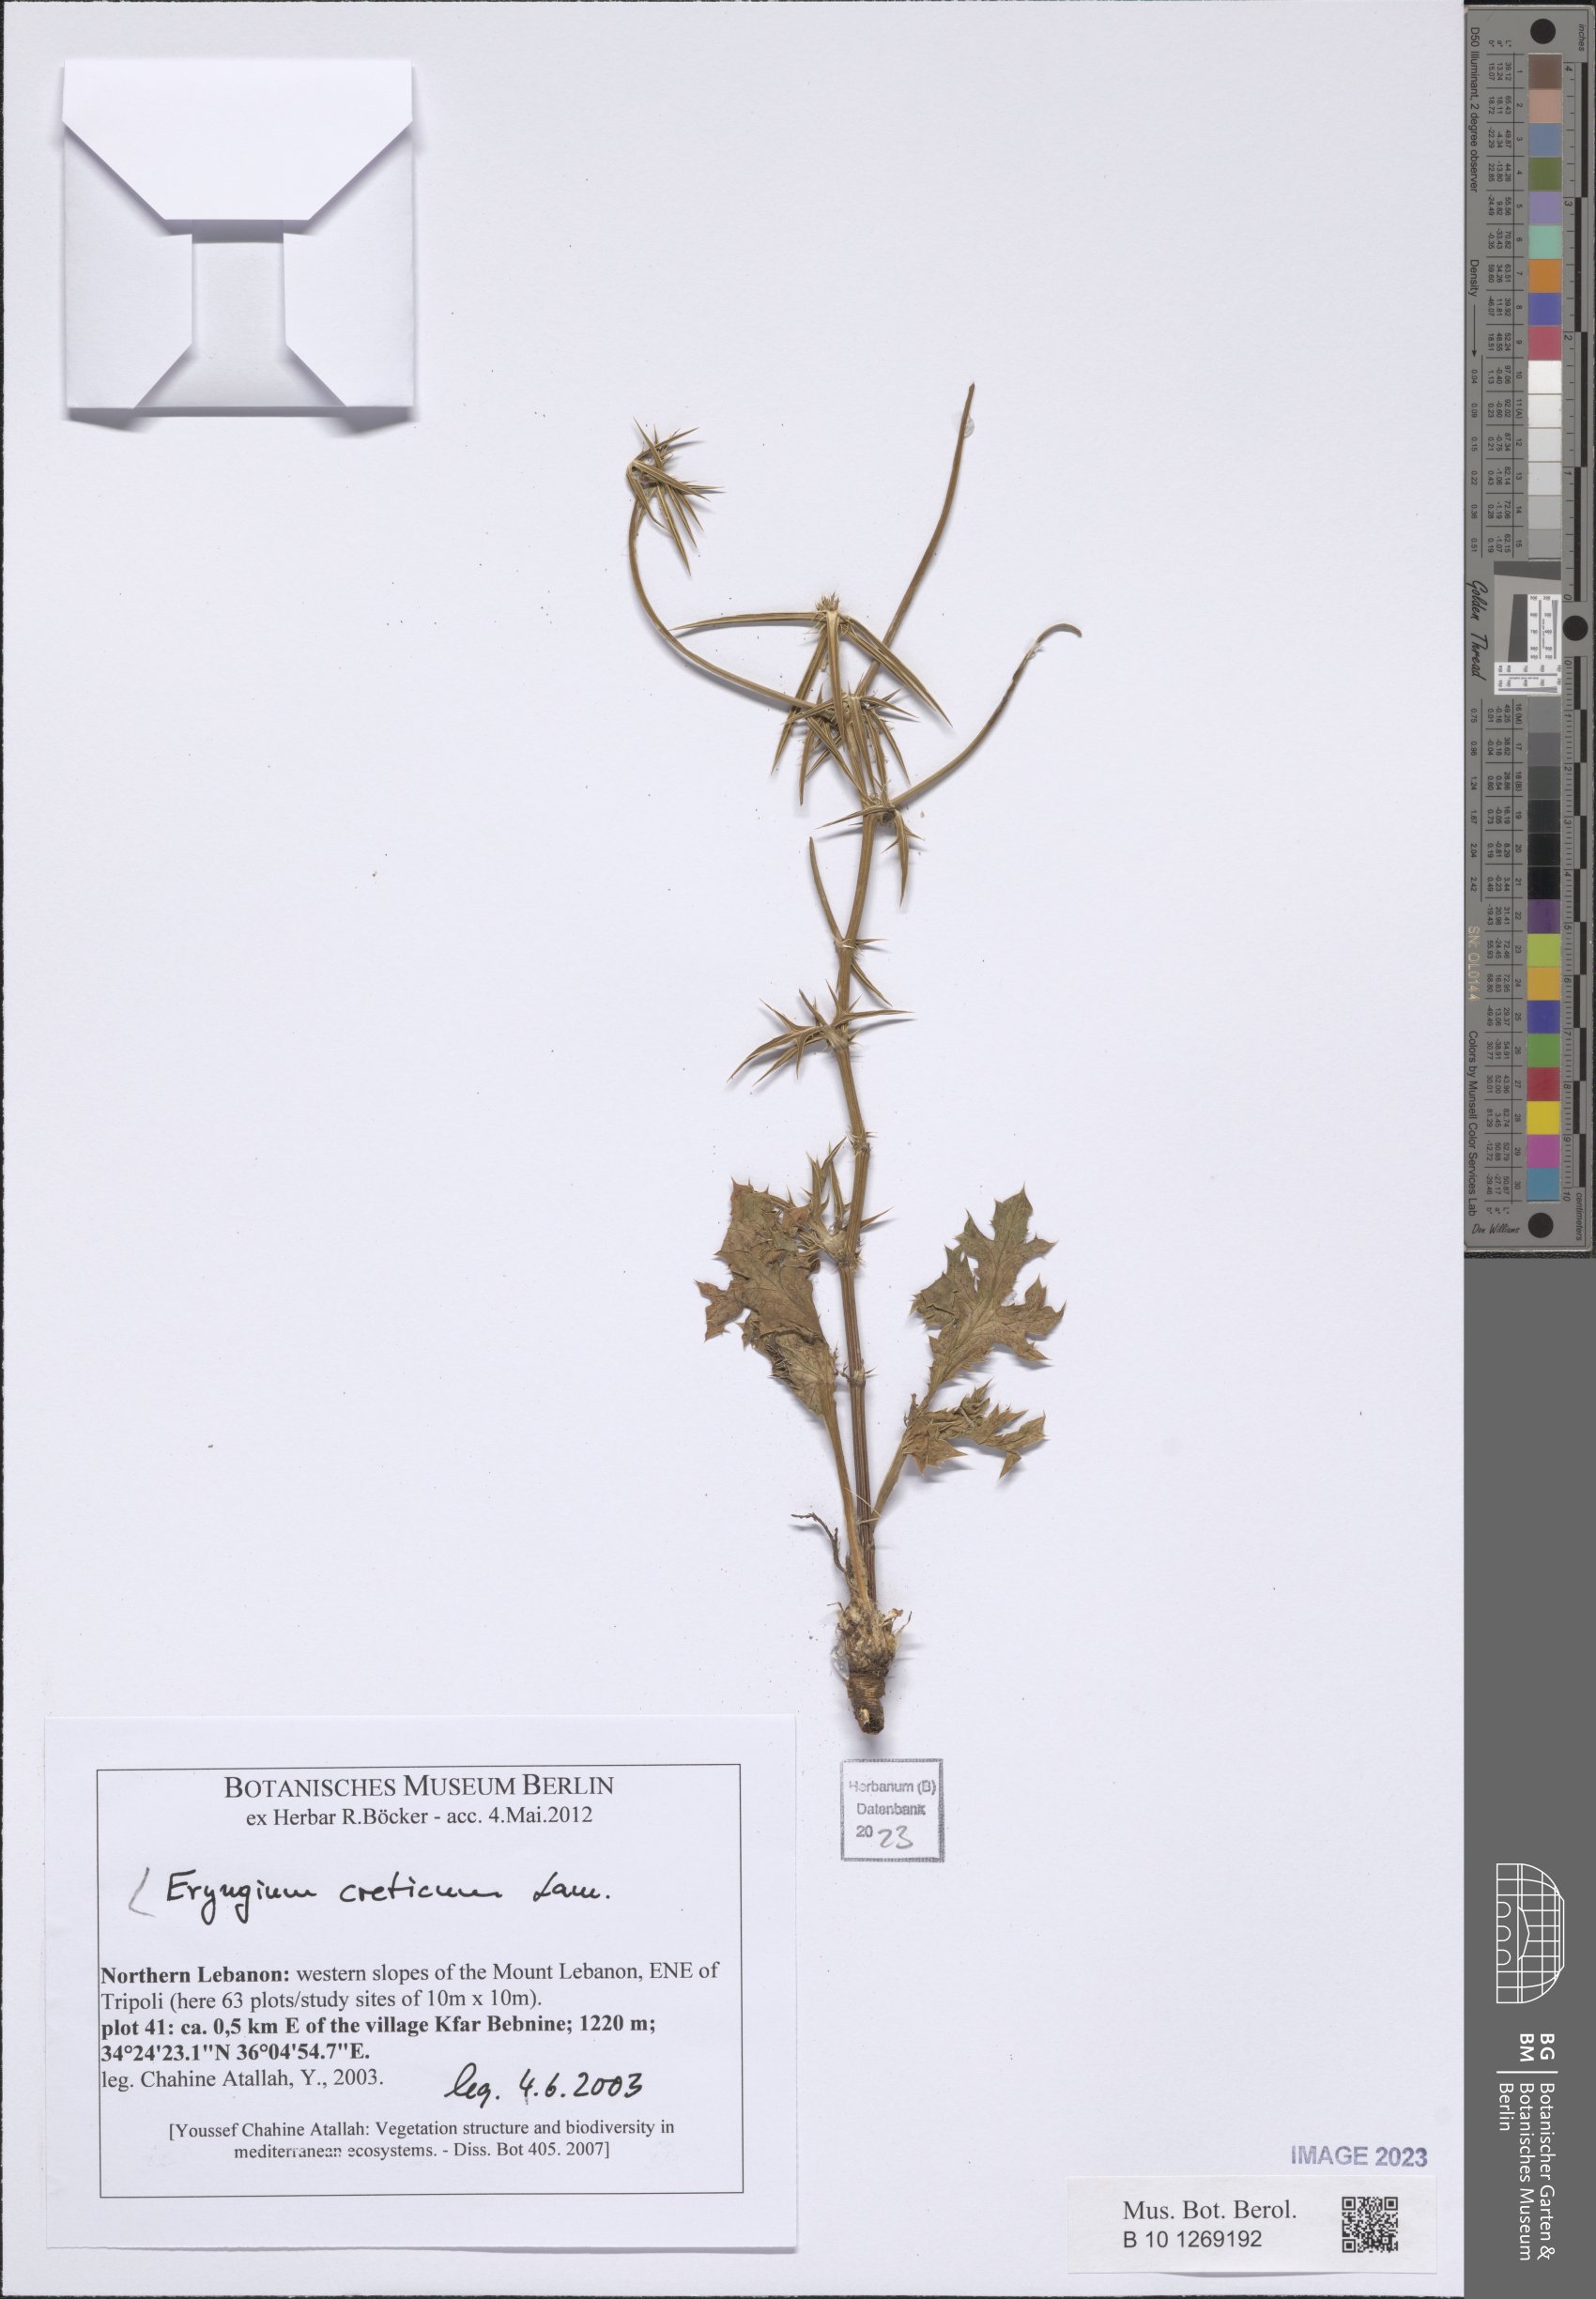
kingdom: Plantae
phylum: Tracheophyta
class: Magnoliopsida
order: Apiales
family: Apiaceae
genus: Eryngium
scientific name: Eryngium creticum
